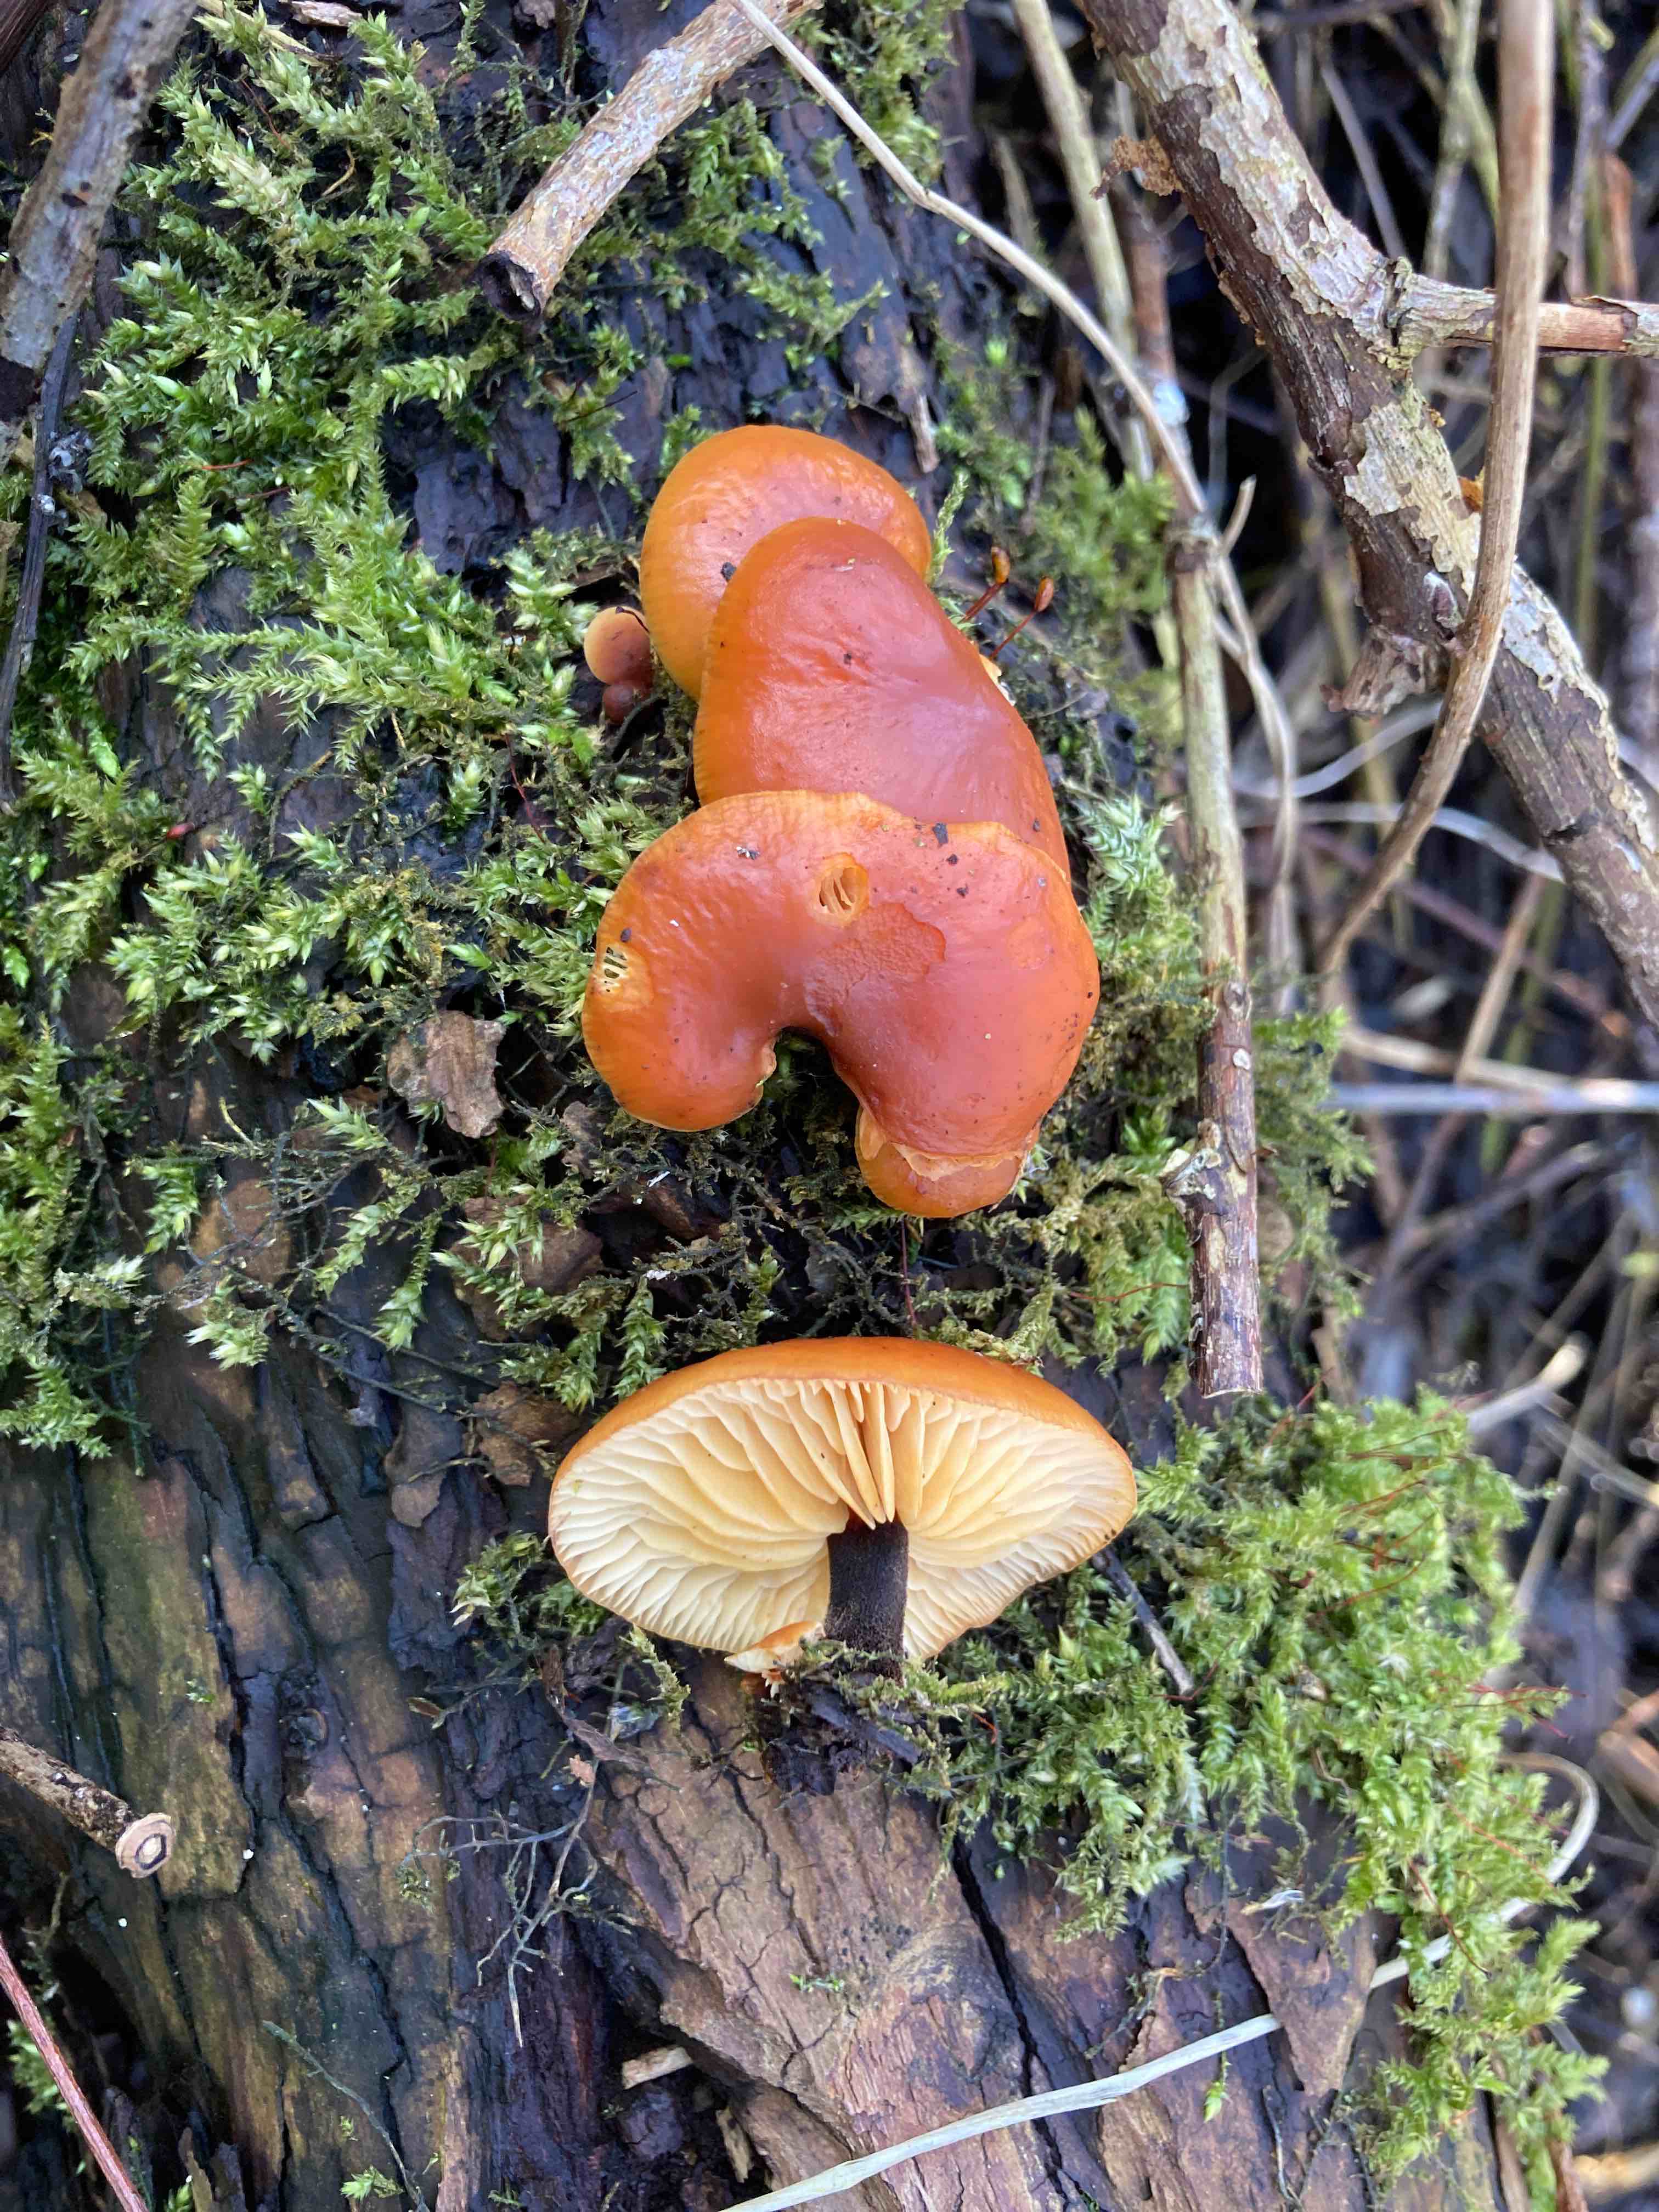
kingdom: Fungi
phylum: Basidiomycota
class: Agaricomycetes
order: Agaricales
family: Physalacriaceae
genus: Flammulina
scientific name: Flammulina
